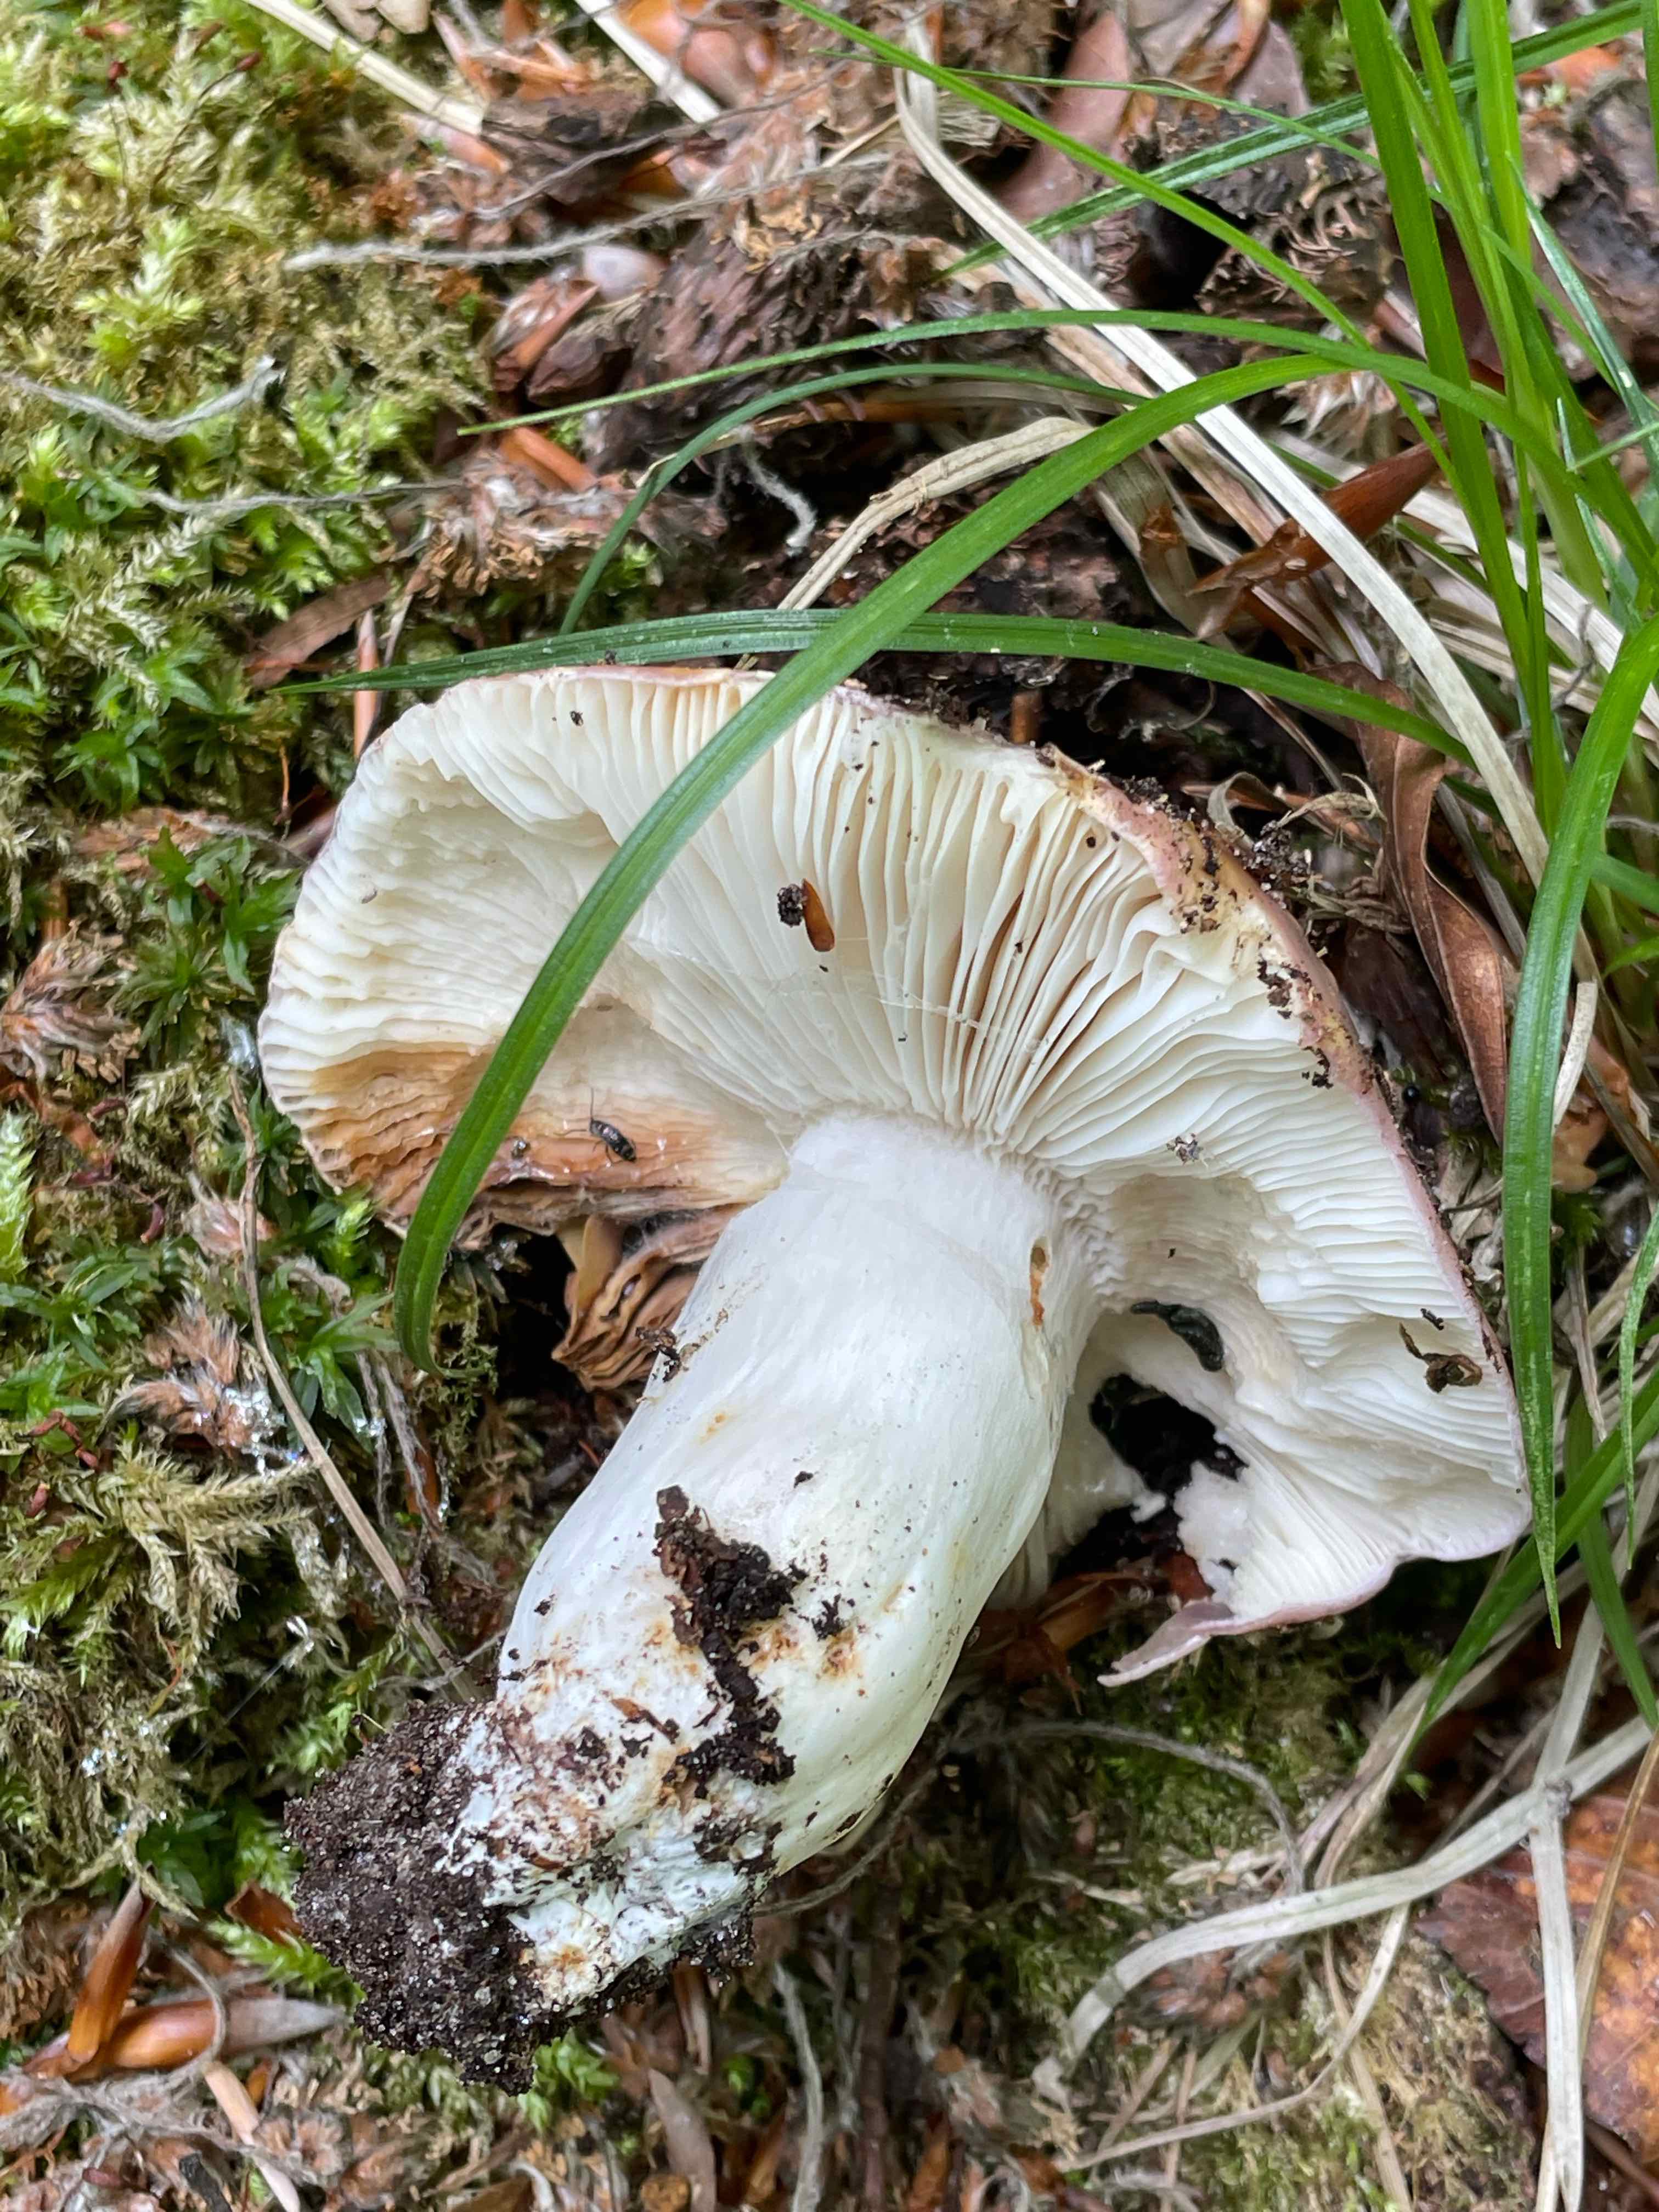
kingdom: Fungi
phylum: Basidiomycota
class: Agaricomycetes
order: Russulales
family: Russulaceae
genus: Russula
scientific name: Russula cyanoxantha
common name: broget skørhat
